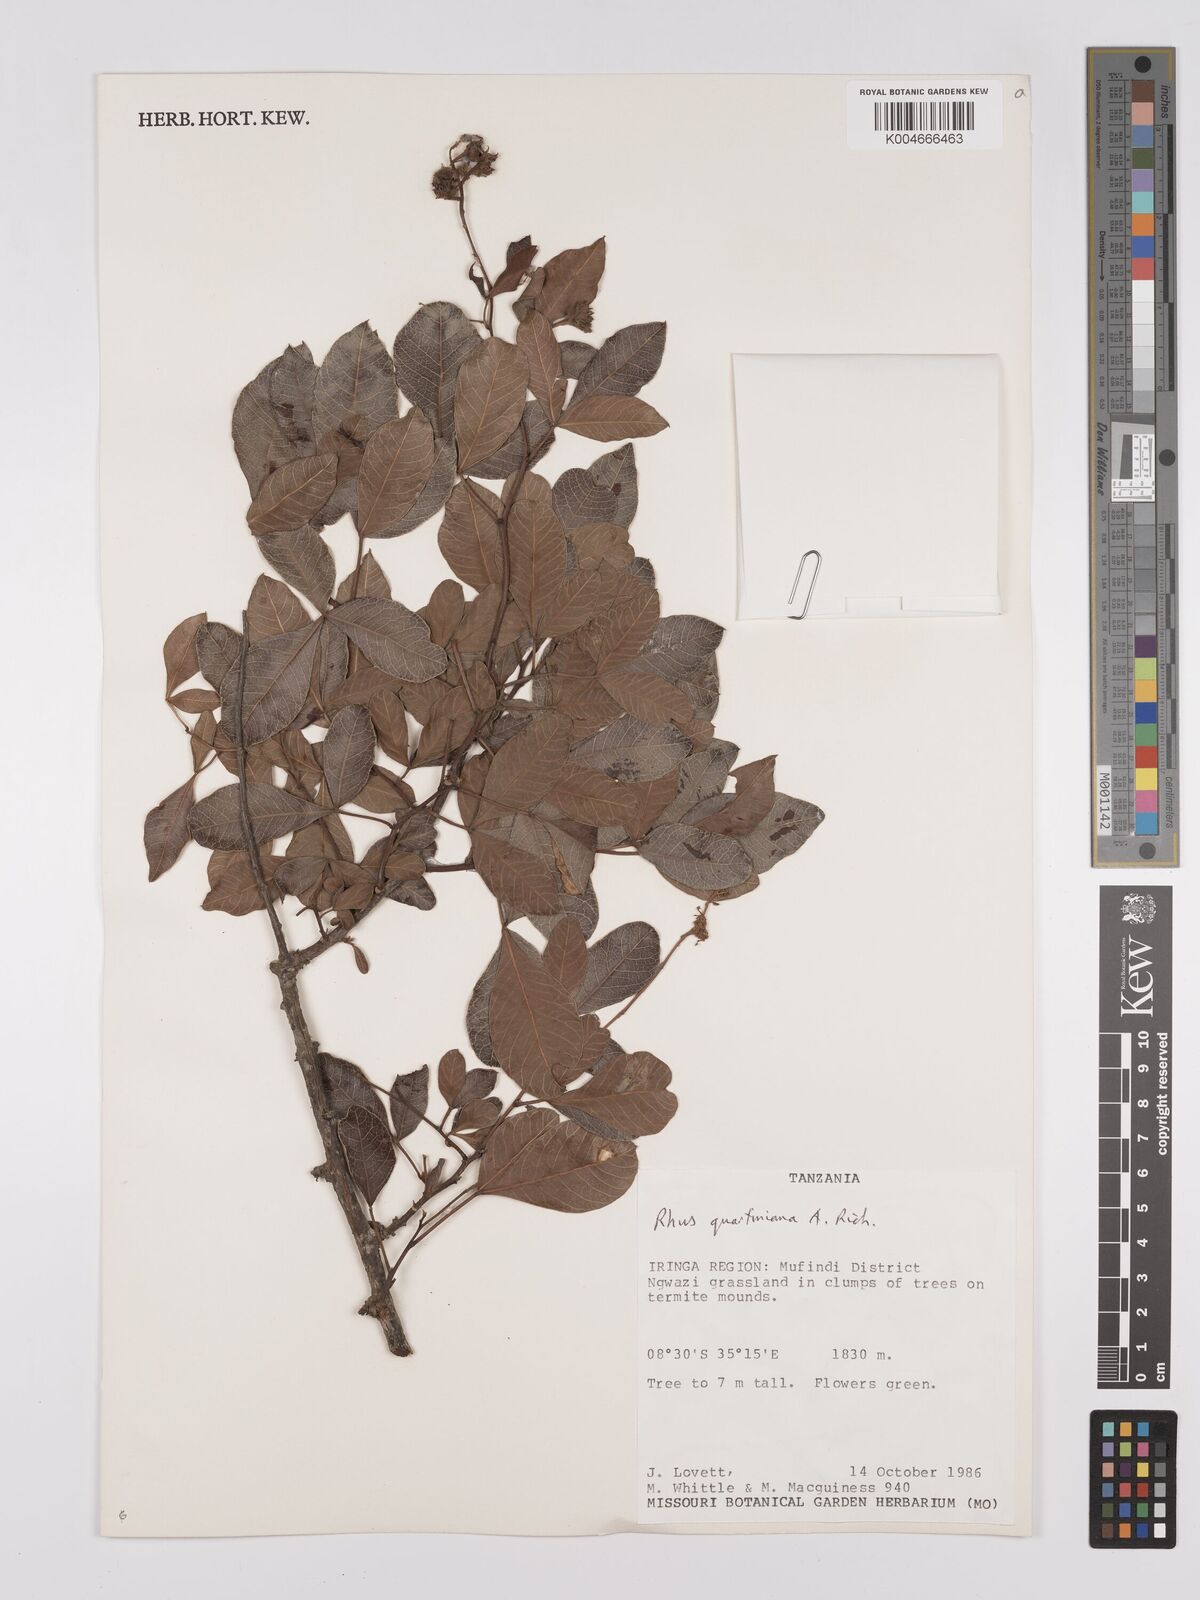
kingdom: Plantae
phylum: Tracheophyta
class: Magnoliopsida
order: Sapindales
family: Anacardiaceae
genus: Searsia
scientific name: Searsia quartiniana
